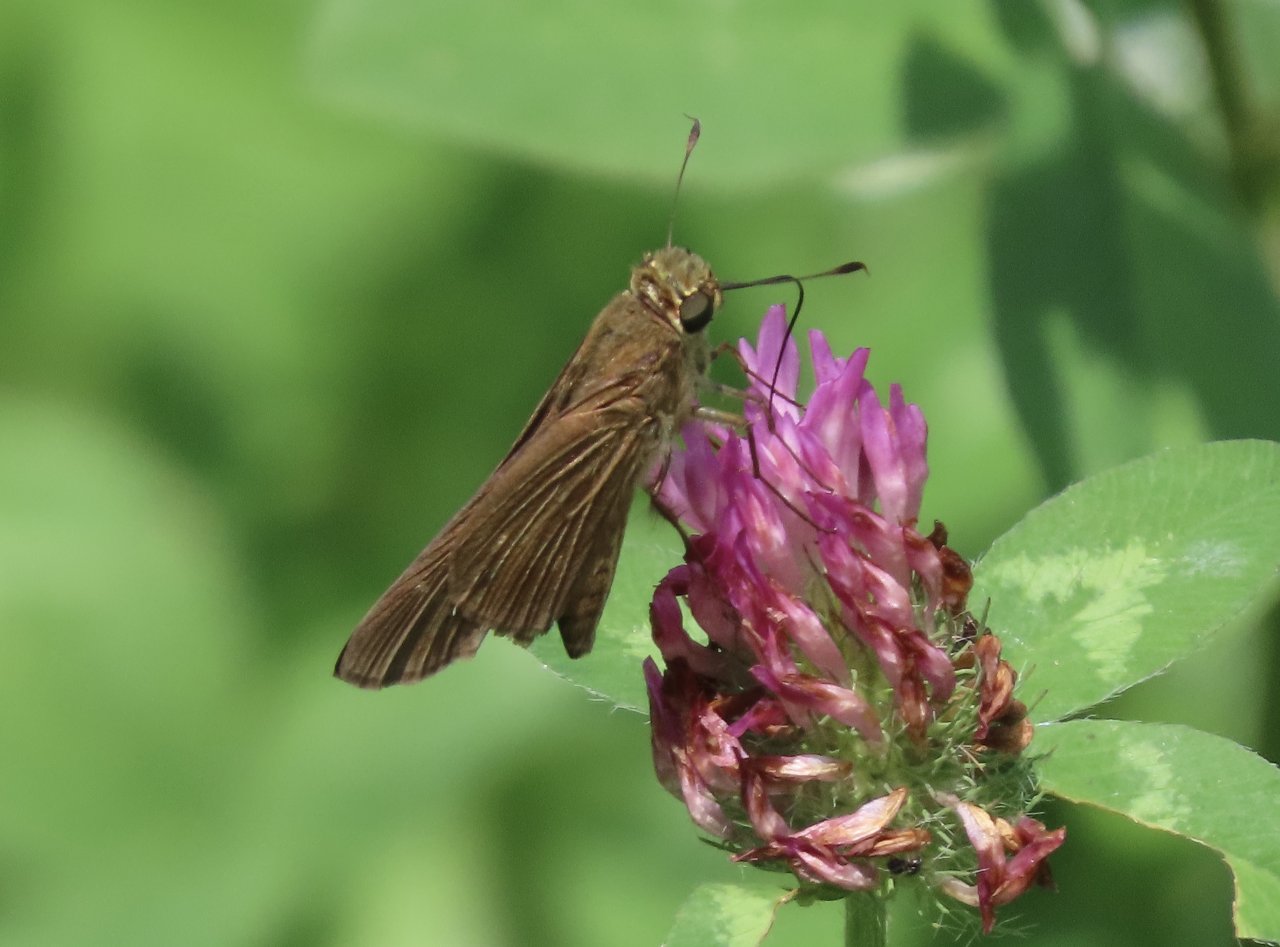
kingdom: Animalia
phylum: Arthropoda
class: Insecta
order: Lepidoptera
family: Hesperiidae
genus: Panoquina
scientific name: Panoquina ocola
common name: Ocola Skipper
